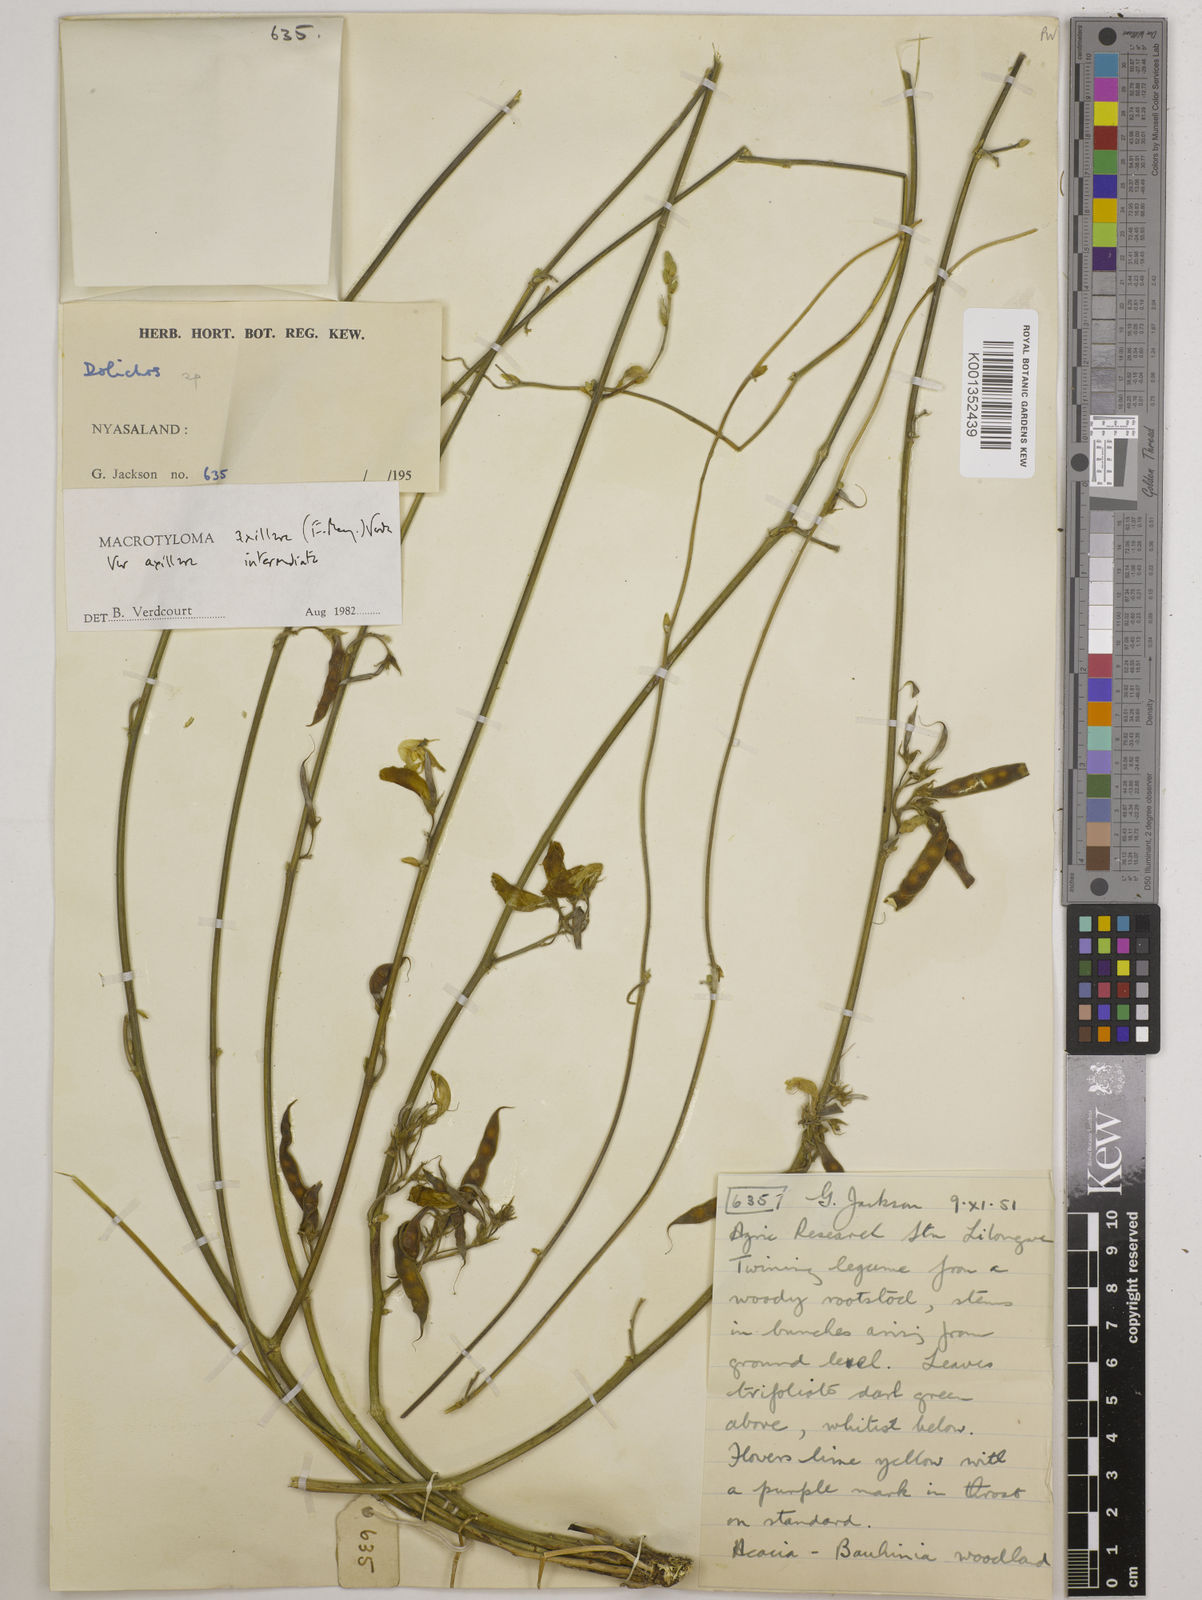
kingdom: Plantae
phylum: Tracheophyta
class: Magnoliopsida
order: Fabales
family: Fabaceae
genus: Macrotyloma
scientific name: Macrotyloma axillare
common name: Perennial horsegram
